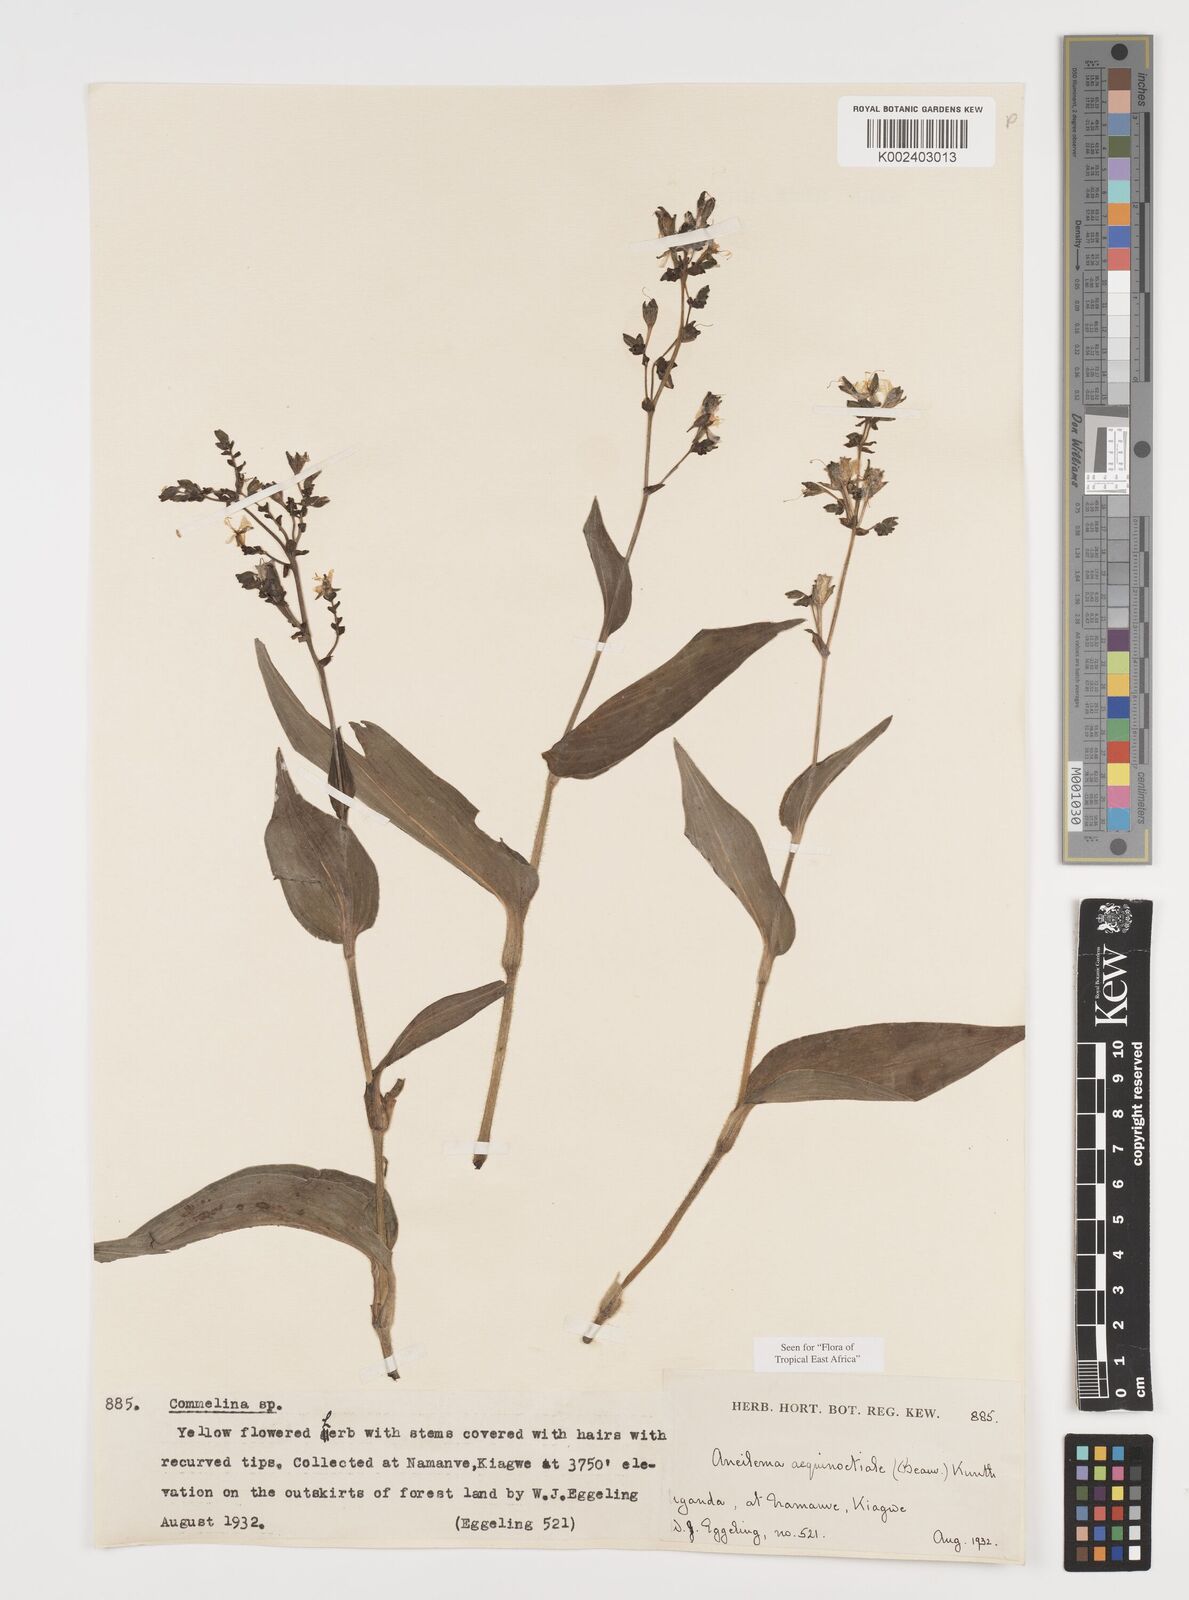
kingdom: Plantae
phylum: Tracheophyta
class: Liliopsida
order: Commelinales
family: Commelinaceae
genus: Aneilema
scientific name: Aneilema aequinoctiale
